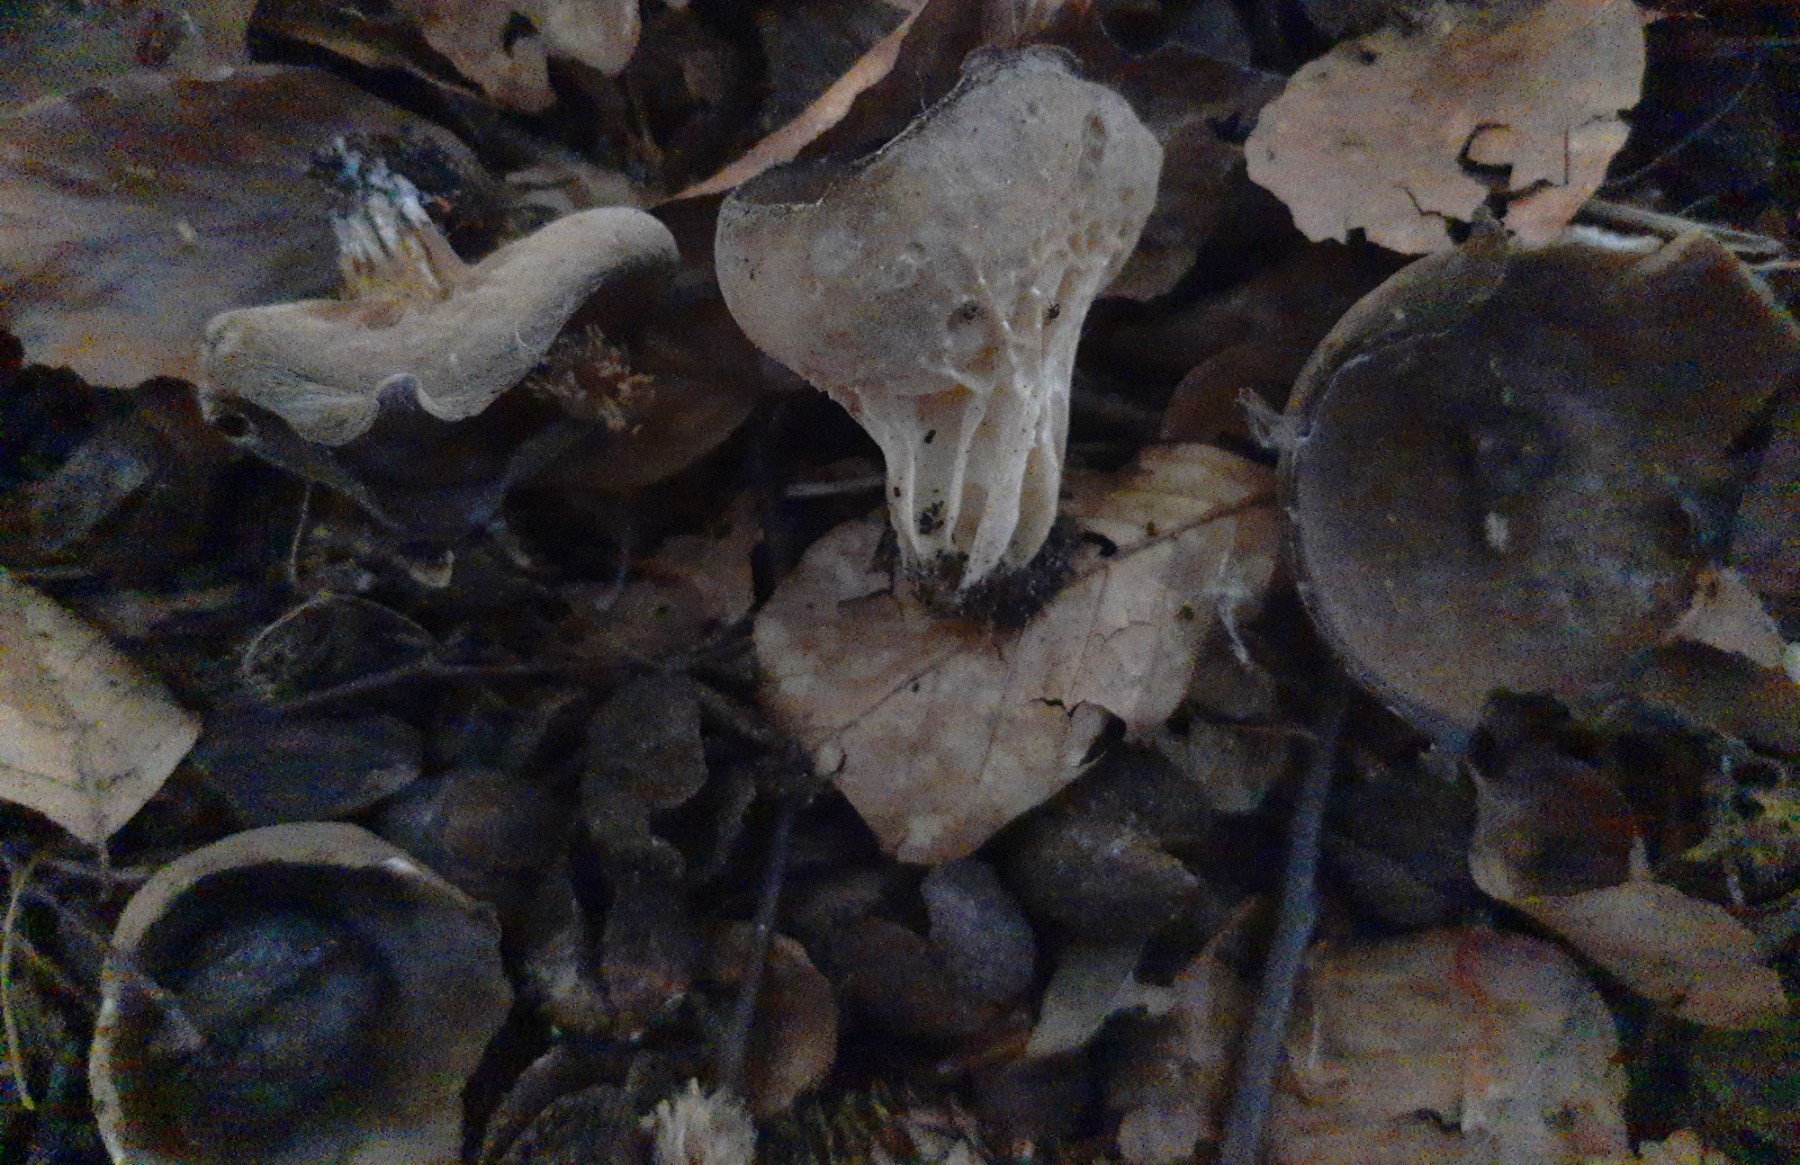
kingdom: Fungi
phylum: Ascomycota
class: Pezizomycetes
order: Pezizales
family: Helvellaceae
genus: Helvella
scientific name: Helvella acetabulum
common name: pokal-foldhat
